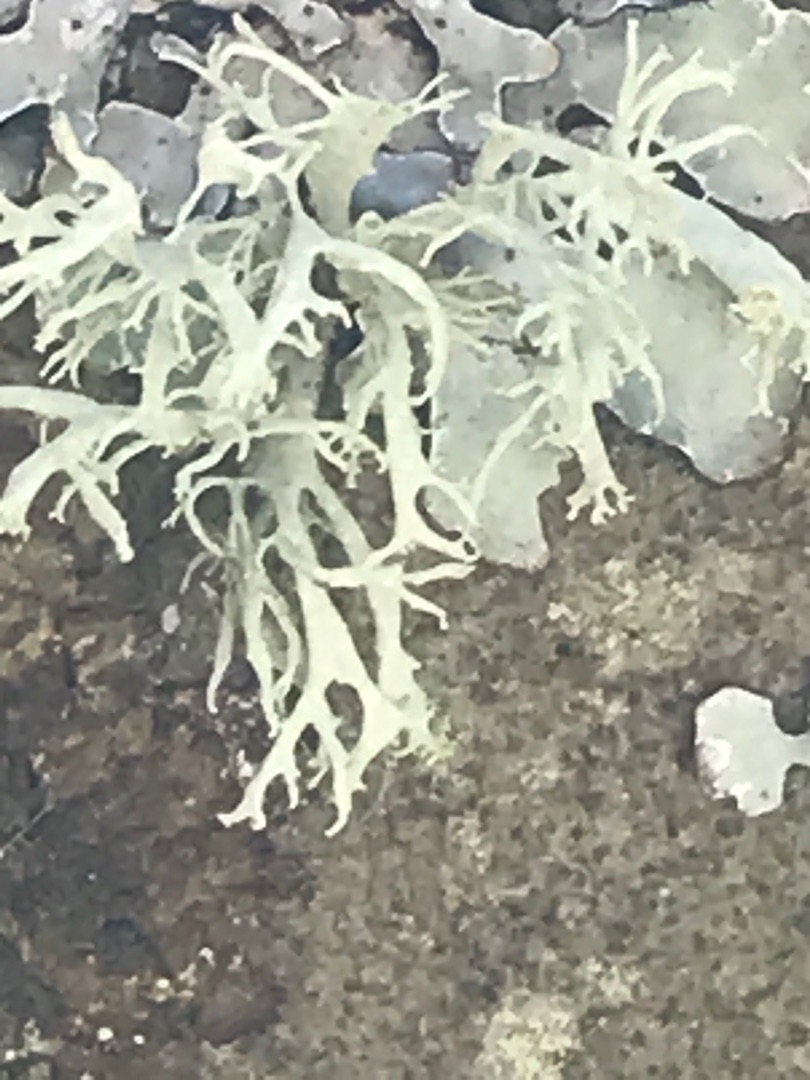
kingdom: Fungi
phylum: Ascomycota
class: Lecanoromycetes
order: Lecanorales
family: Parmeliaceae
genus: Evernia
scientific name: Evernia prunastri
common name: Almindelig slåenlav
